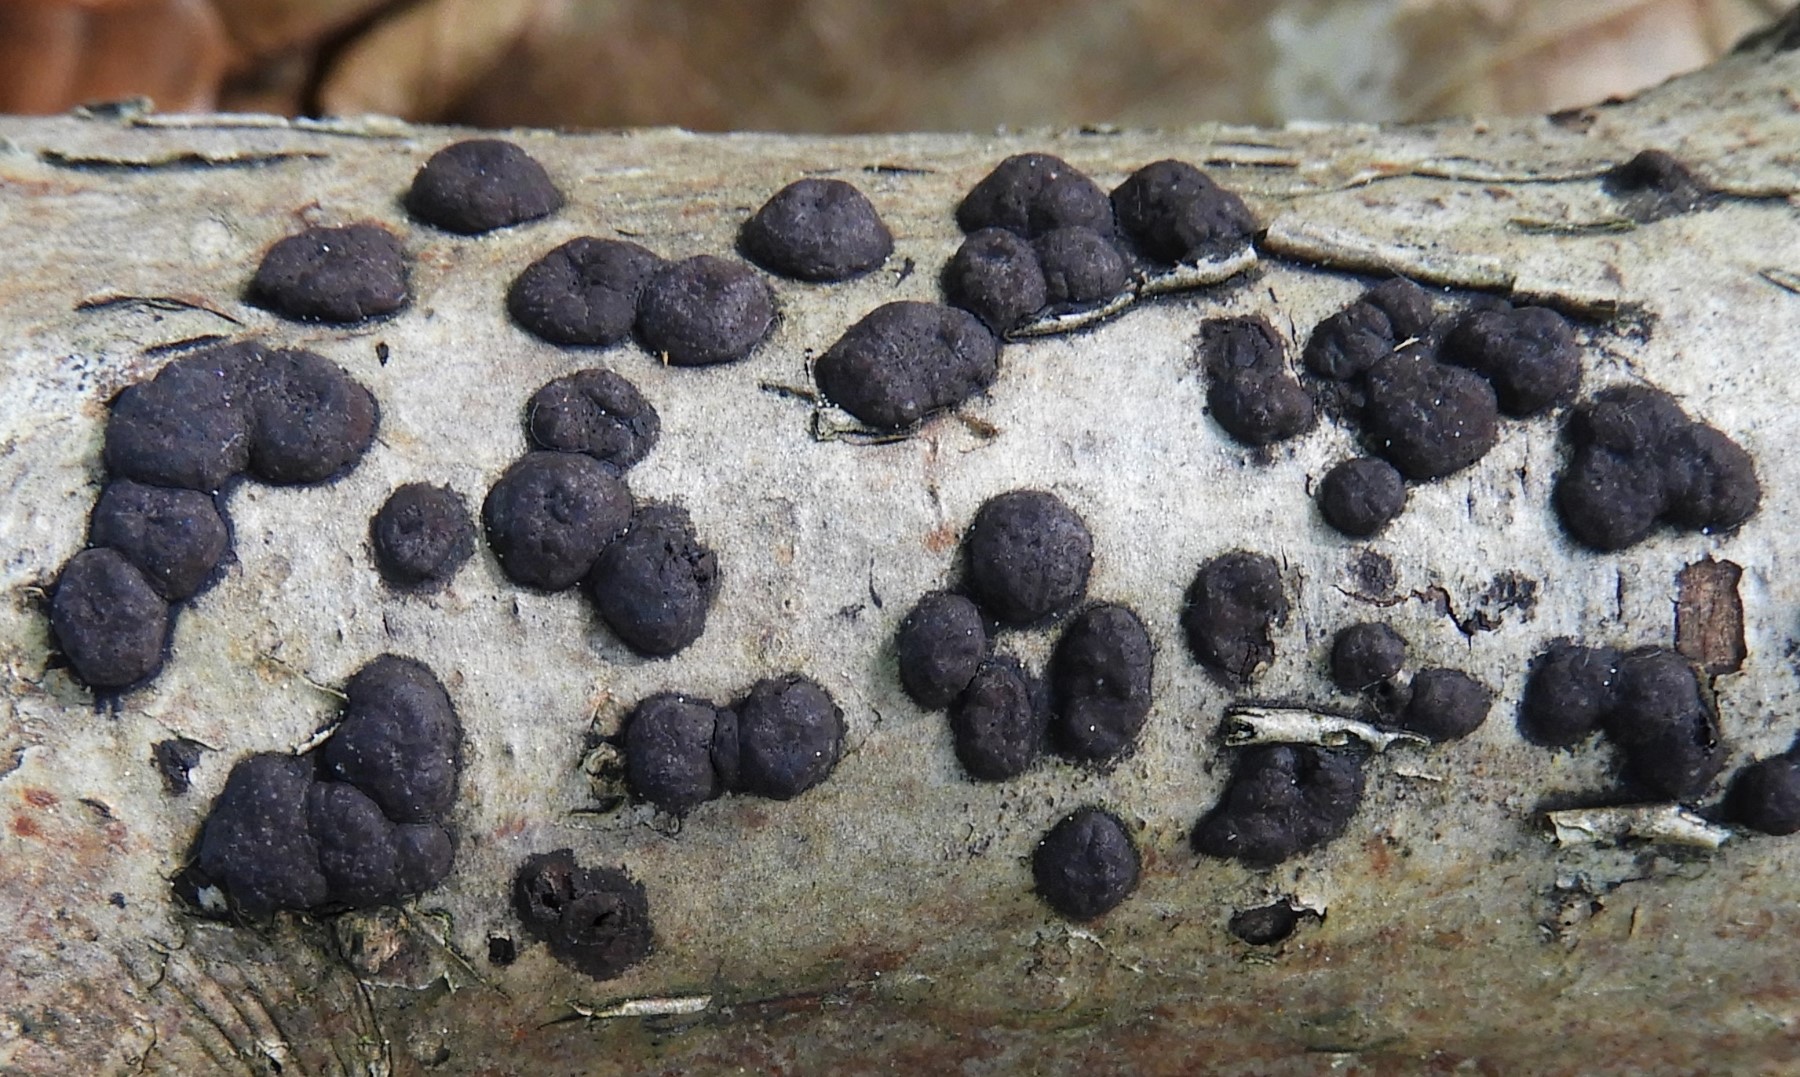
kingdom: Fungi
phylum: Ascomycota
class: Sordariomycetes
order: Xylariales
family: Hypoxylaceae
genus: Hypoxylon
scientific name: Hypoxylon fuscum
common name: kegleformet kulbær
